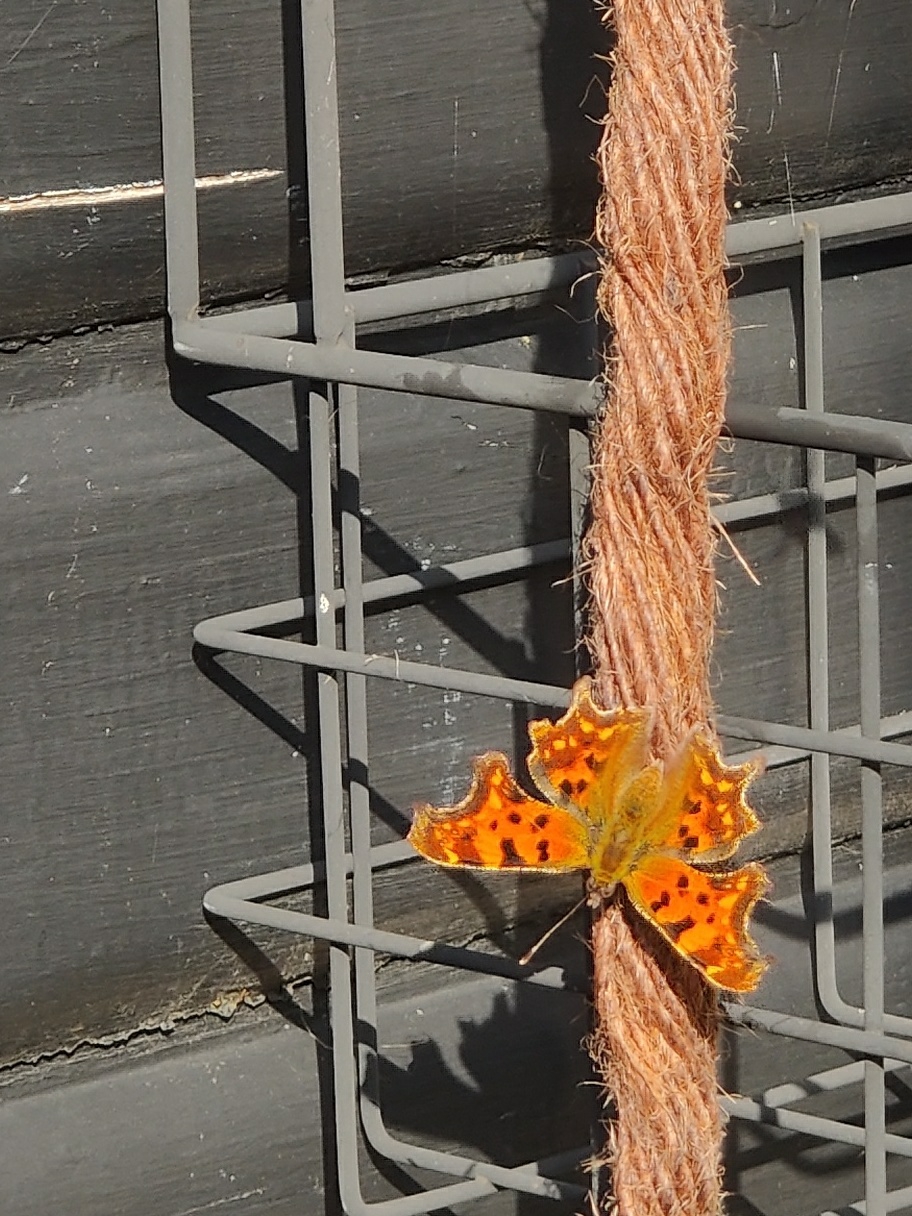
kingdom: Animalia
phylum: Arthropoda
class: Insecta
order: Lepidoptera
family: Nymphalidae
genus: Polygonia
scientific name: Polygonia c-album
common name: Det hvide C
